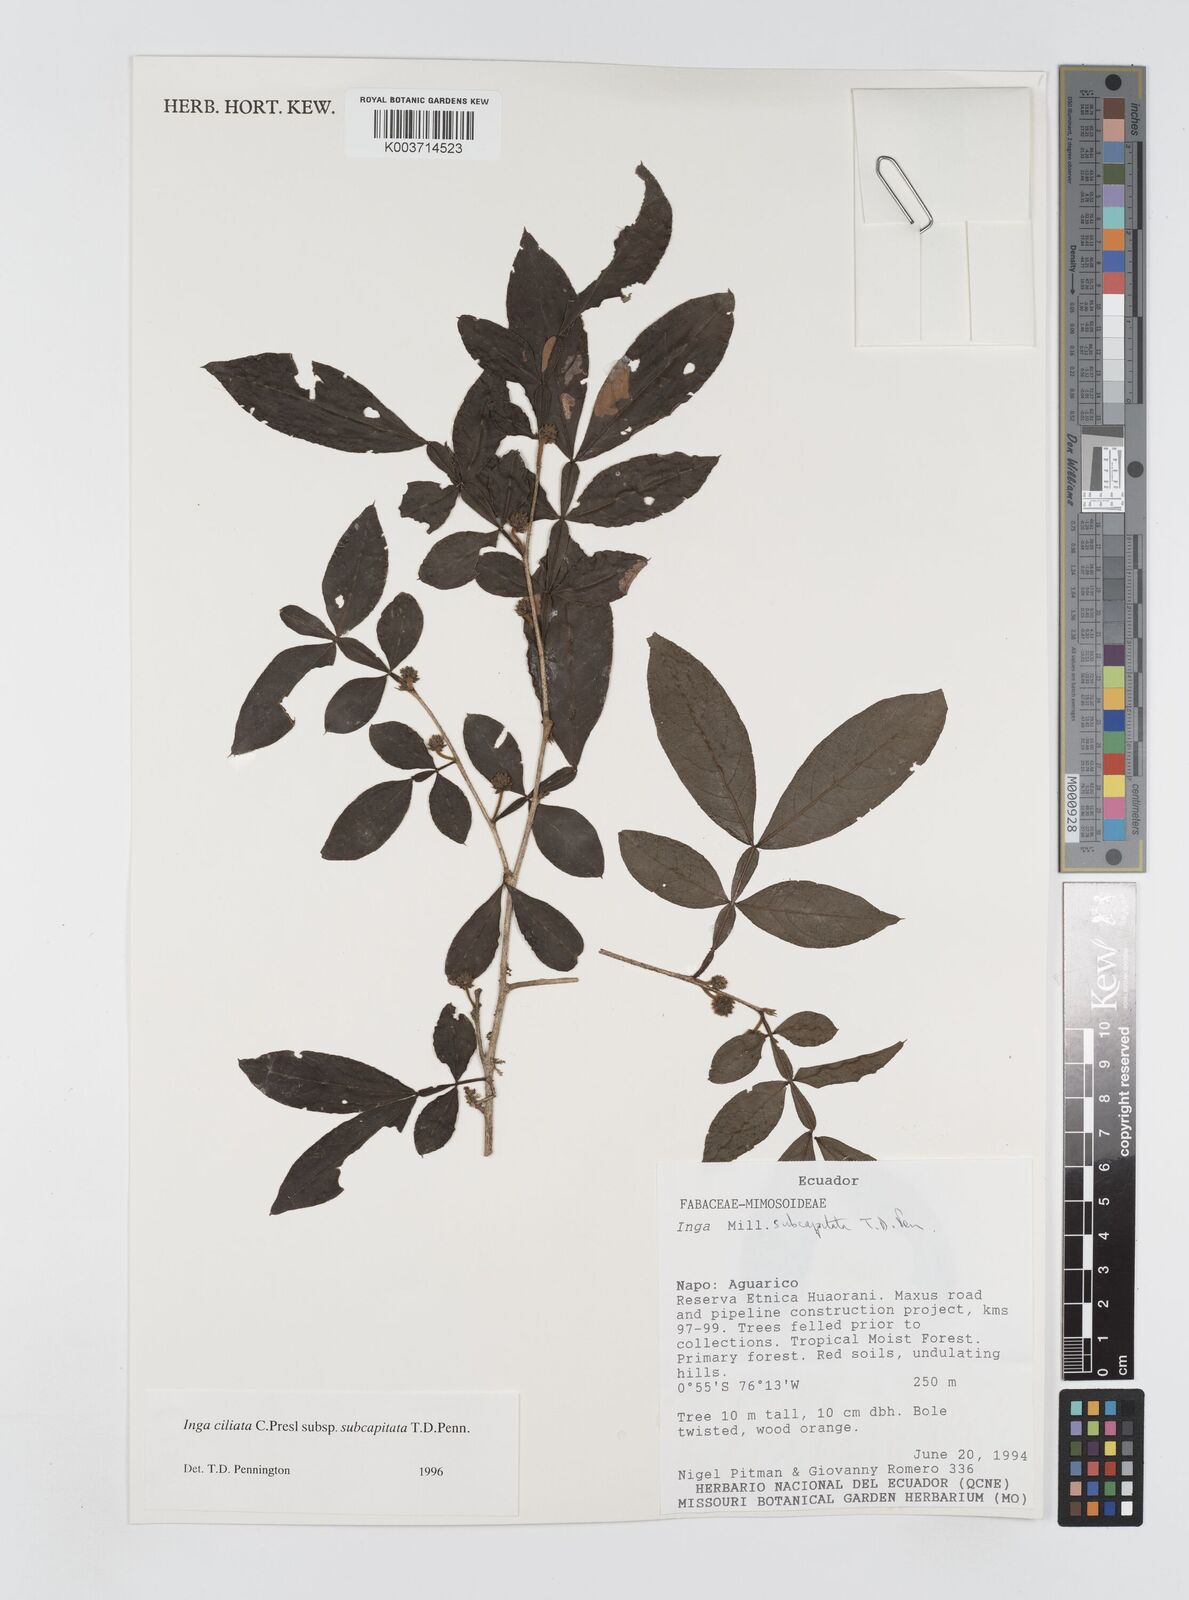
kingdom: Plantae
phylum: Tracheophyta
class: Magnoliopsida
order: Fabales
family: Fabaceae
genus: Inga
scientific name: Inga ciliata
